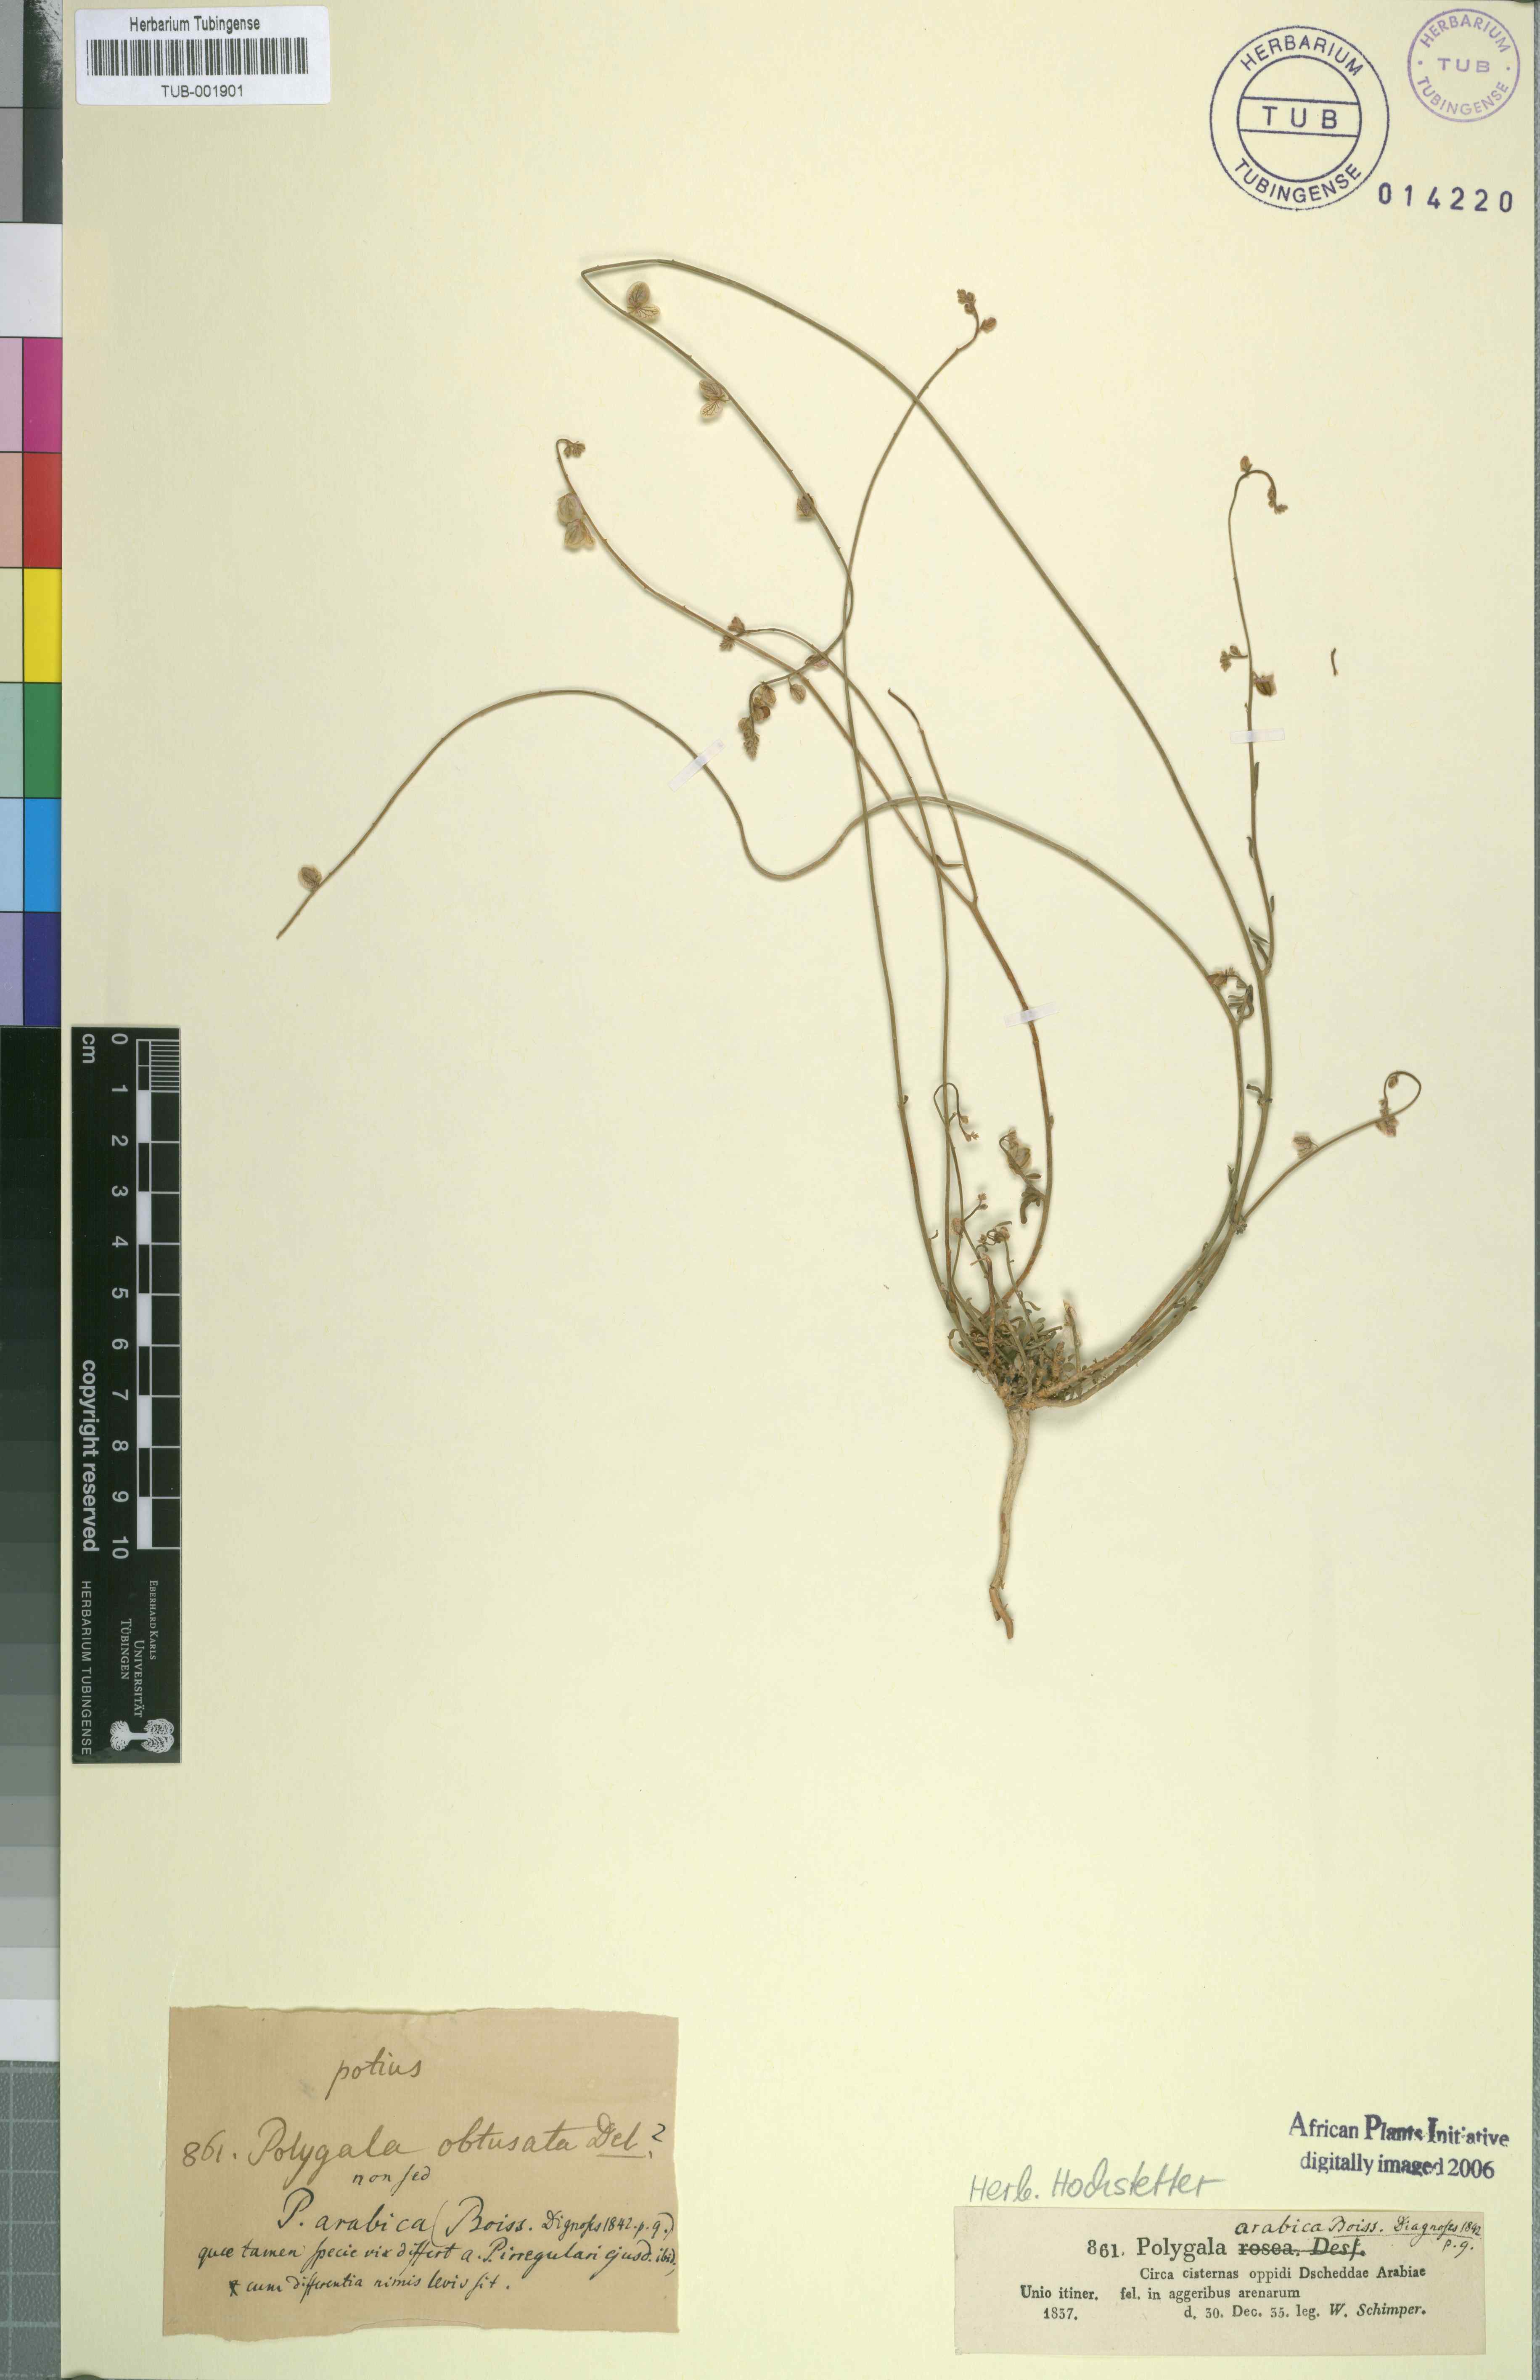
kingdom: Plantae
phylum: Tracheophyta
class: Magnoliopsida
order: Fabales
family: Polygalaceae
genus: Polygala
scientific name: Polygala irregularis
